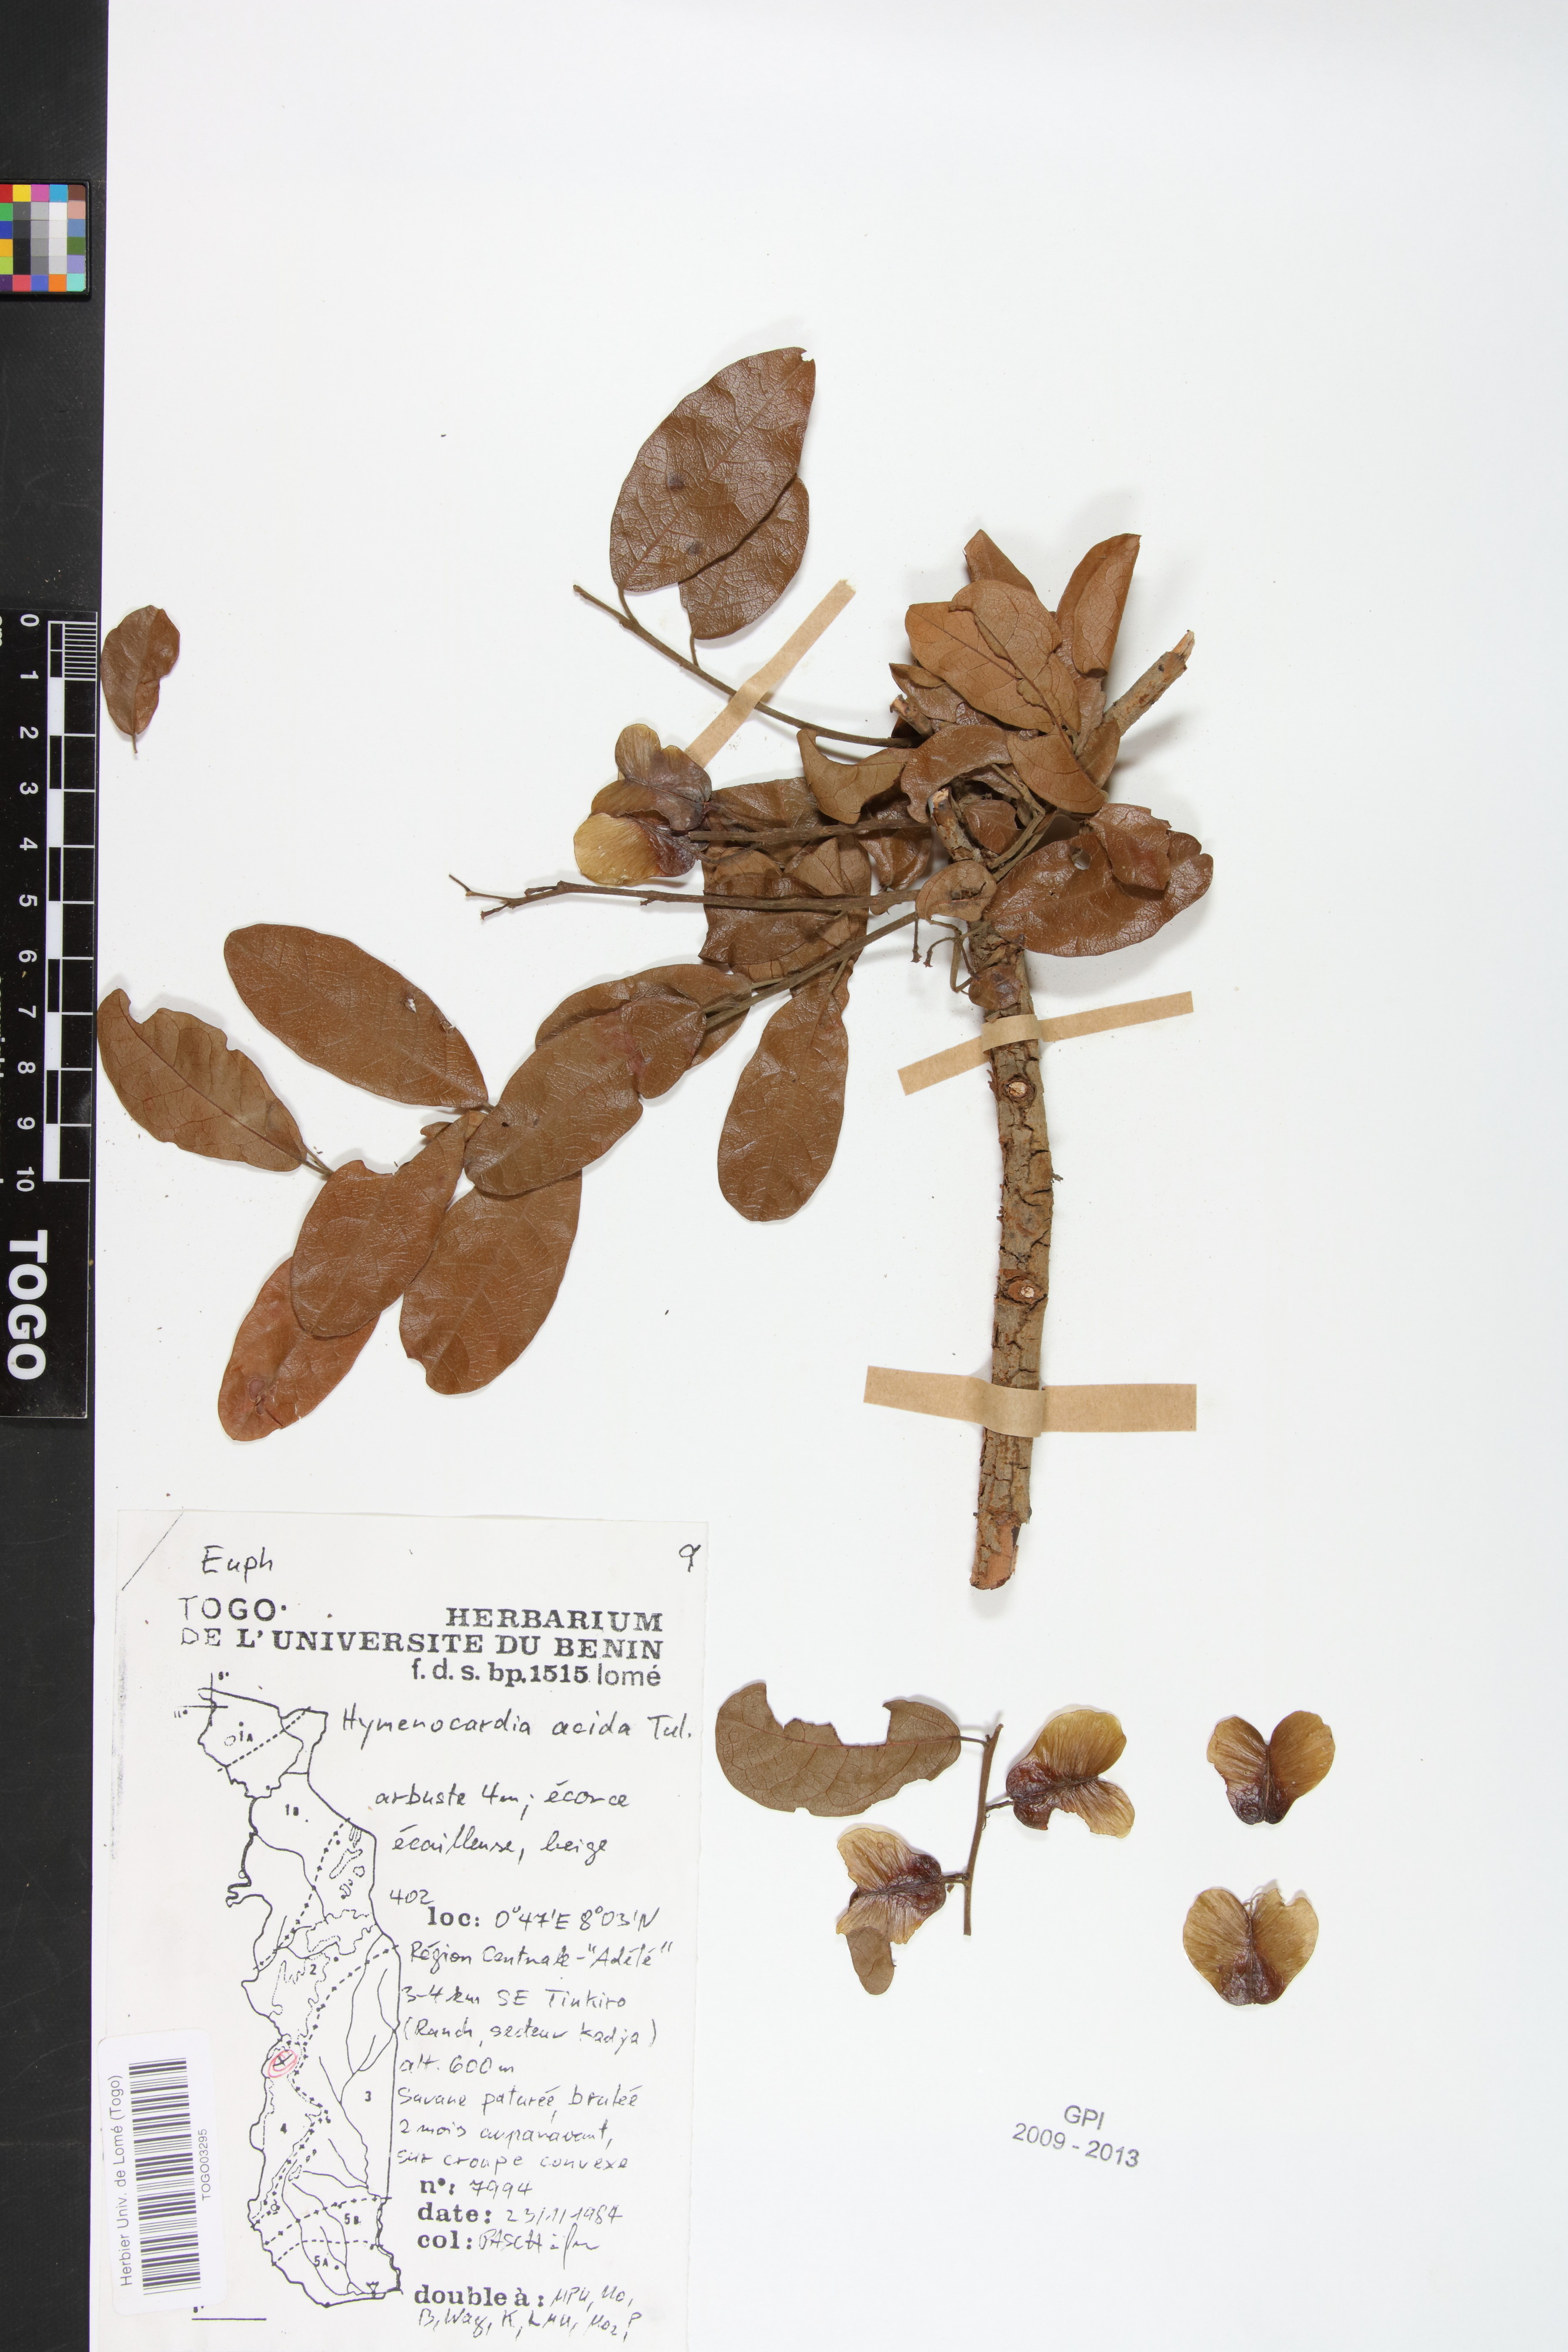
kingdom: Plantae
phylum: Tracheophyta
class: Magnoliopsida
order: Malpighiales
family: Phyllanthaceae
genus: Hymenocardia
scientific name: Hymenocardia acida
